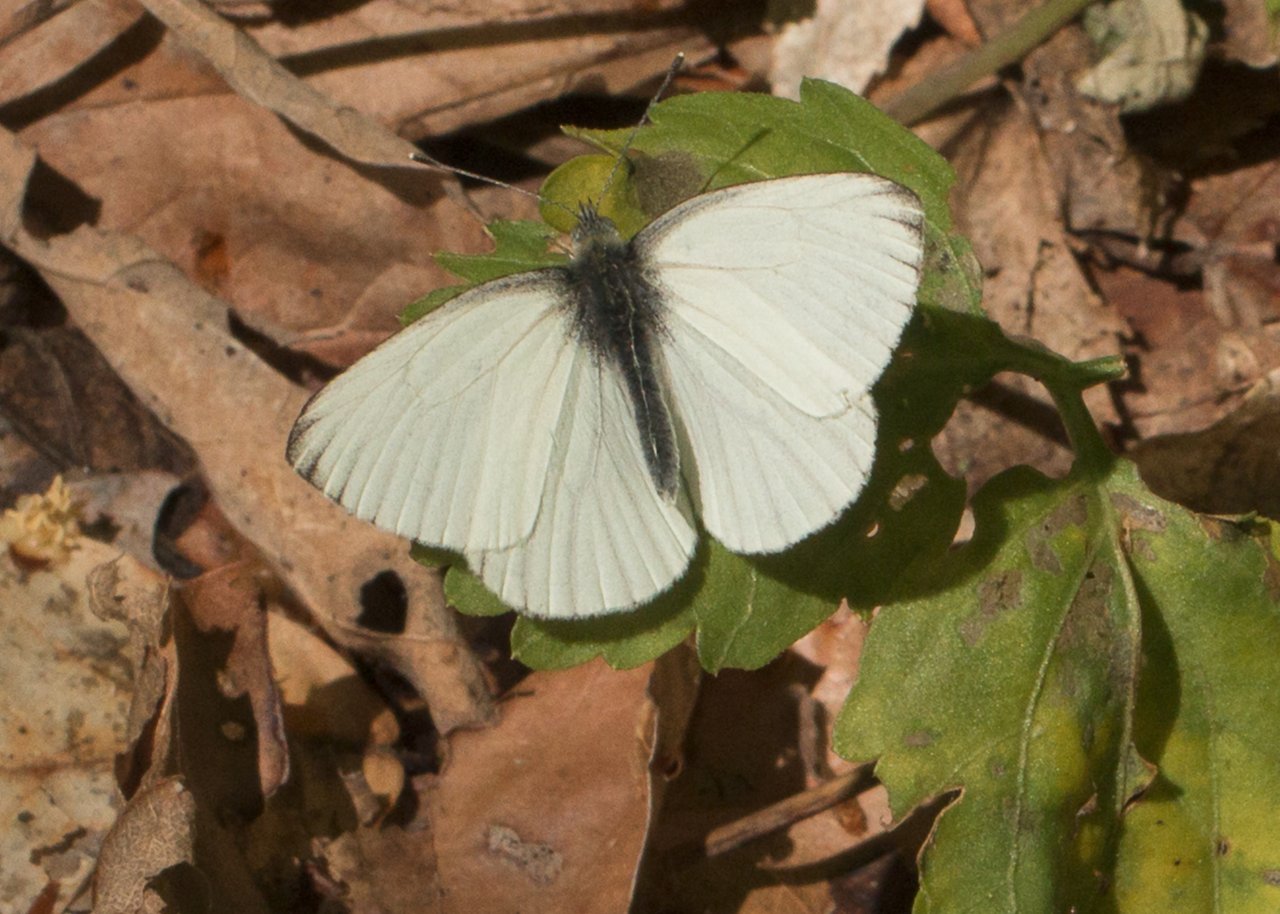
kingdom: Animalia
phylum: Arthropoda
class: Insecta
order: Lepidoptera
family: Pieridae
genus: Pieris
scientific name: Pieris oleracea
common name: Mustard White
